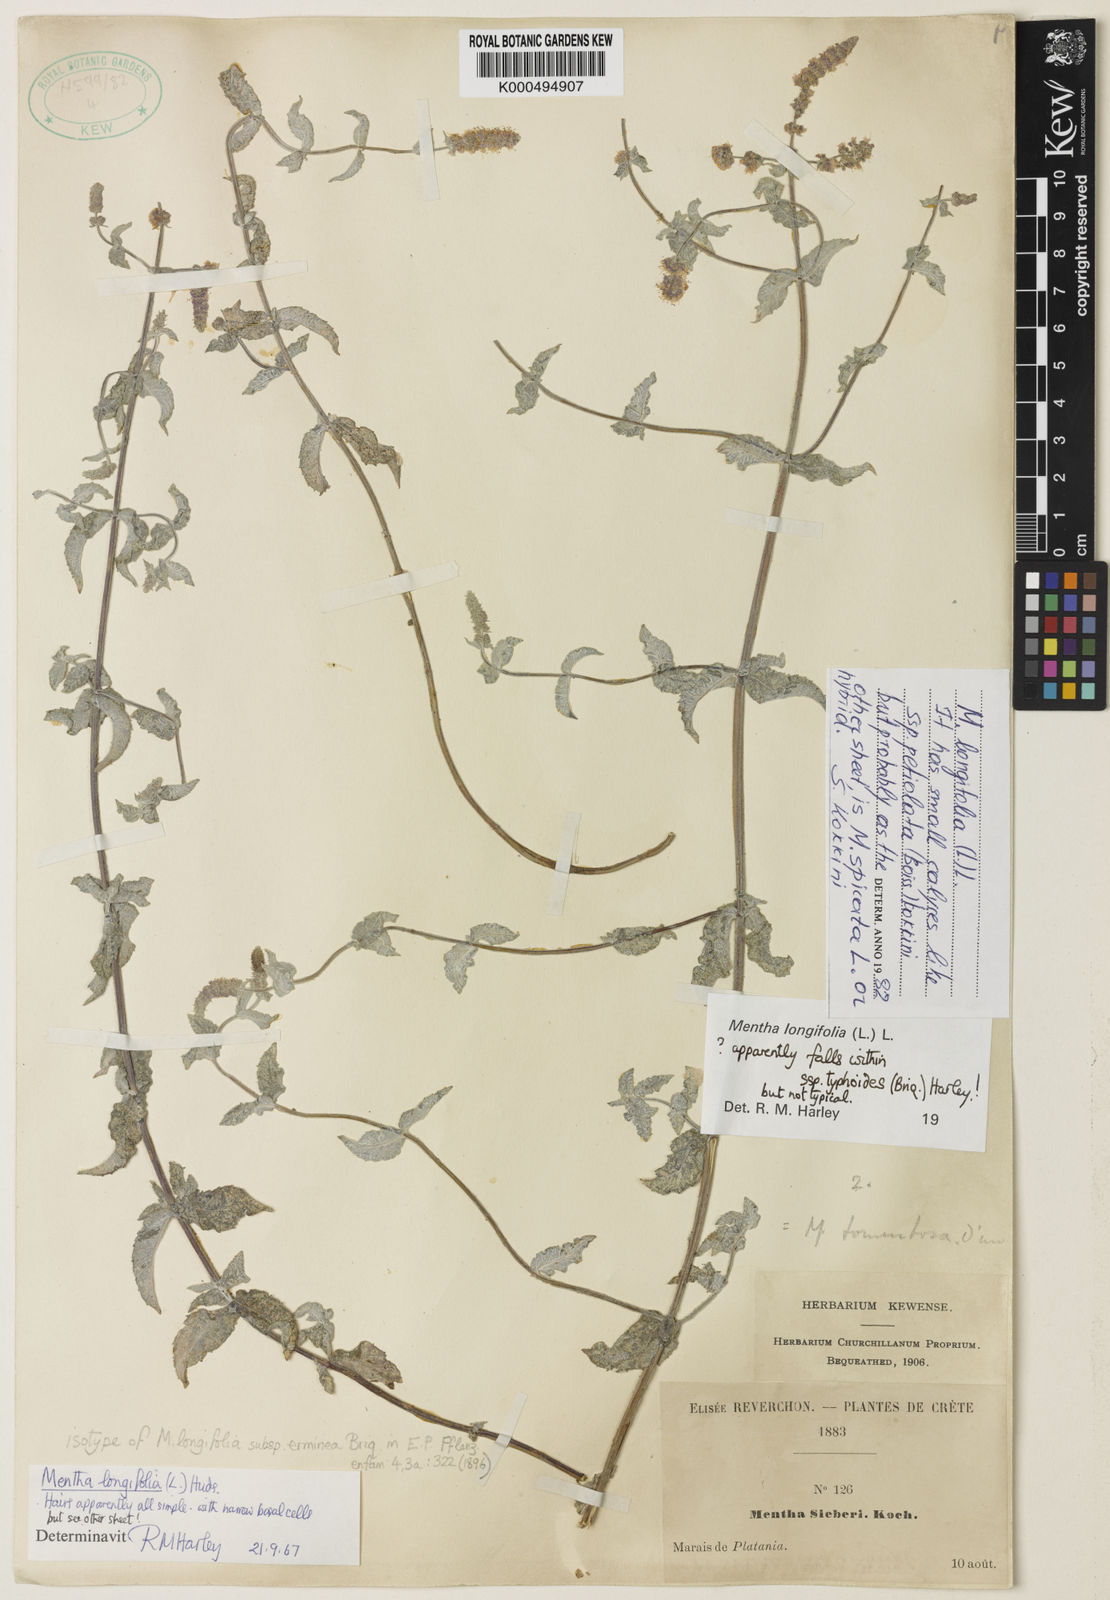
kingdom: Plantae
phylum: Tracheophyta
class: Magnoliopsida
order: Lamiales
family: Lamiaceae
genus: Mentha
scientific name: Mentha
